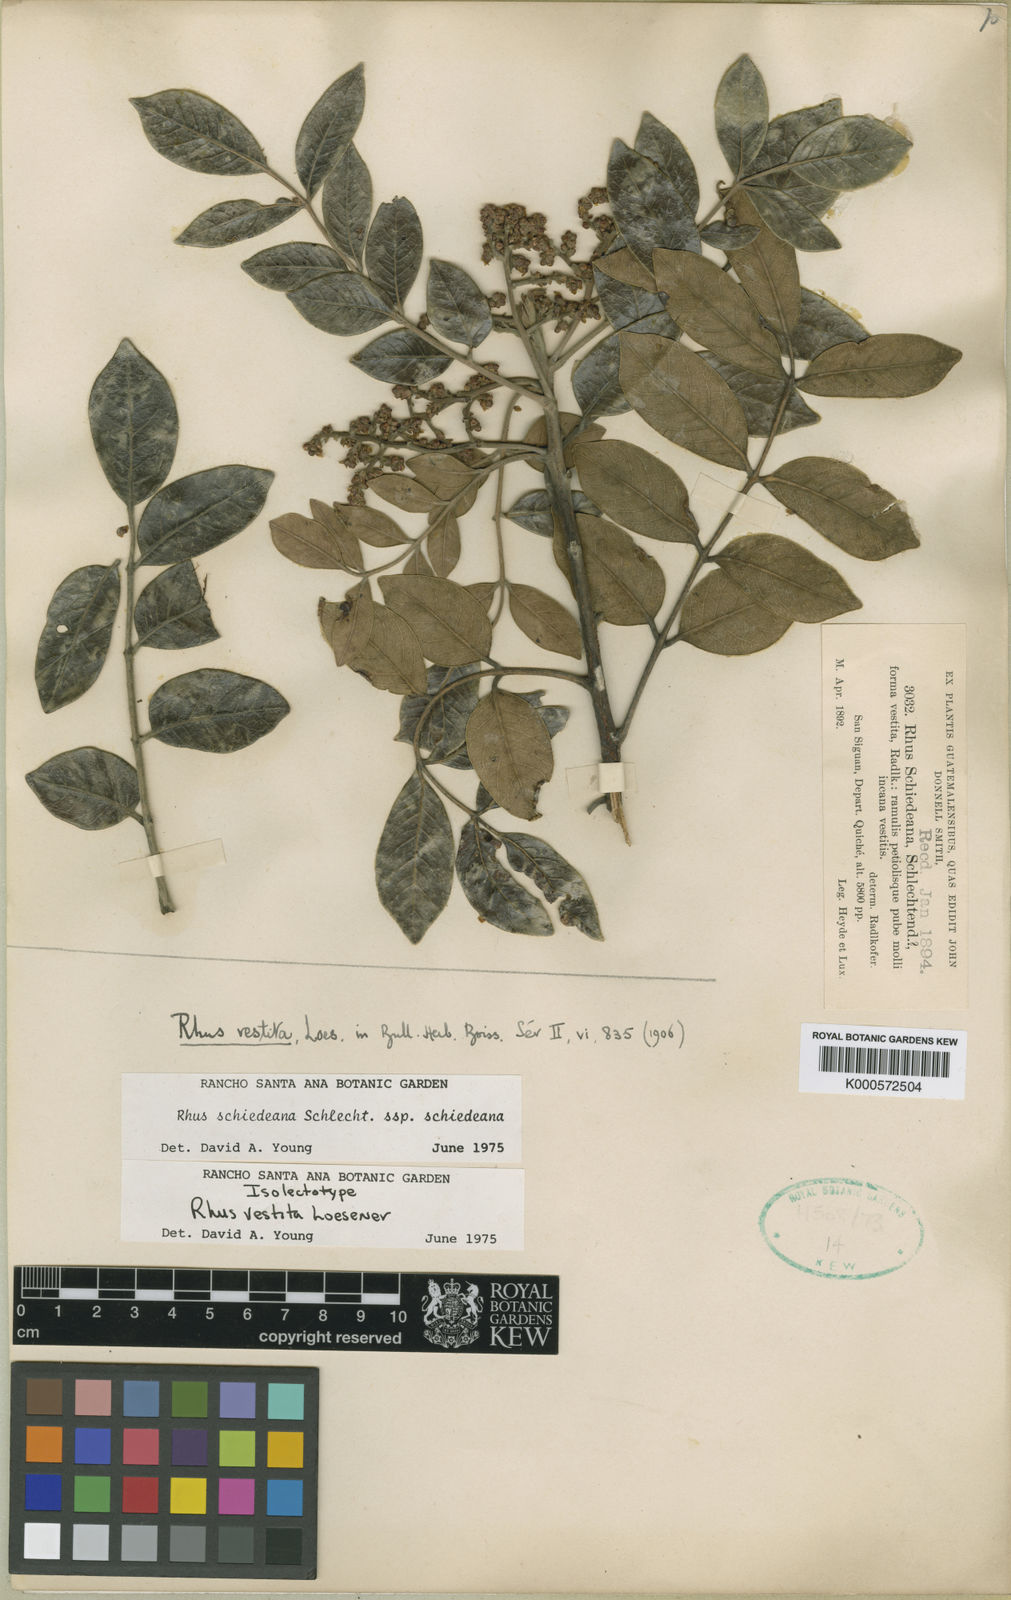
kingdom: Plantae
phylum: Tracheophyta
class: Magnoliopsida
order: Sapindales
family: Anacardiaceae
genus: Rhus
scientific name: Rhus vestita
